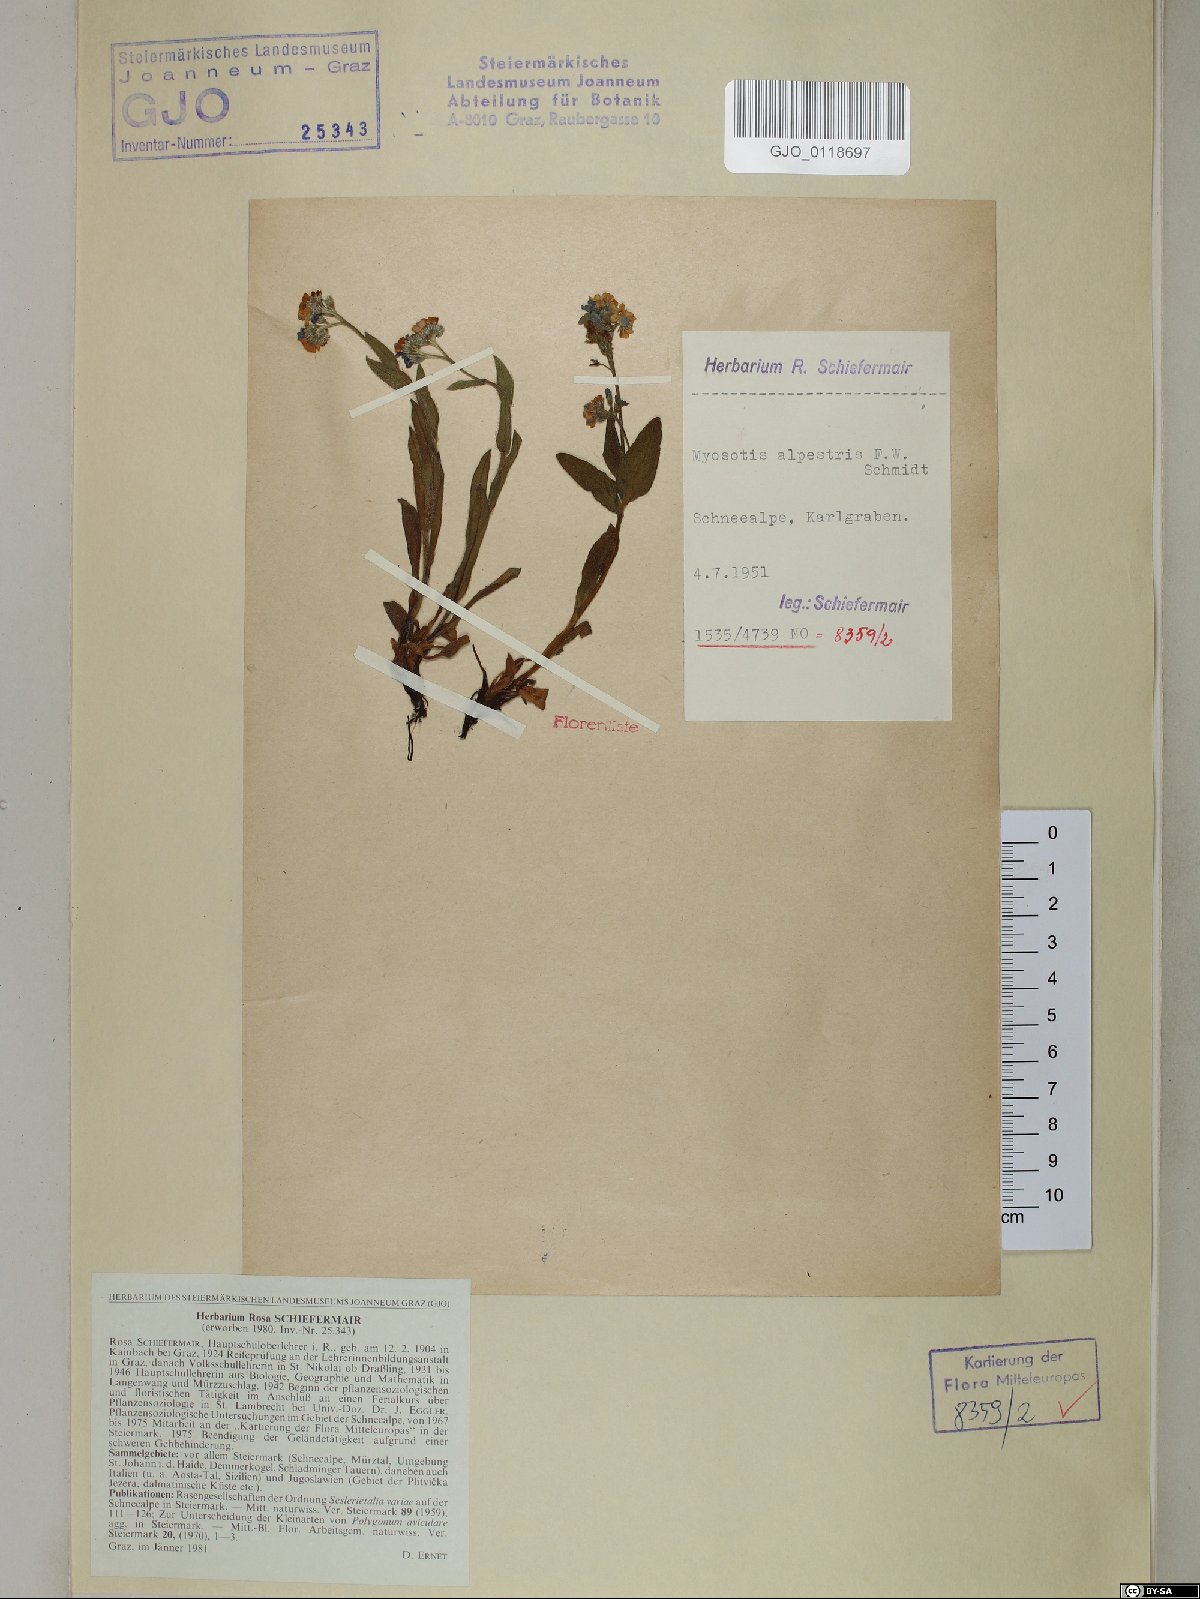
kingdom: Plantae
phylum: Tracheophyta
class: Magnoliopsida
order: Boraginales
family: Boraginaceae
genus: Myosotis
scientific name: Myosotis alpestris
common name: Alpine forget-me-not
